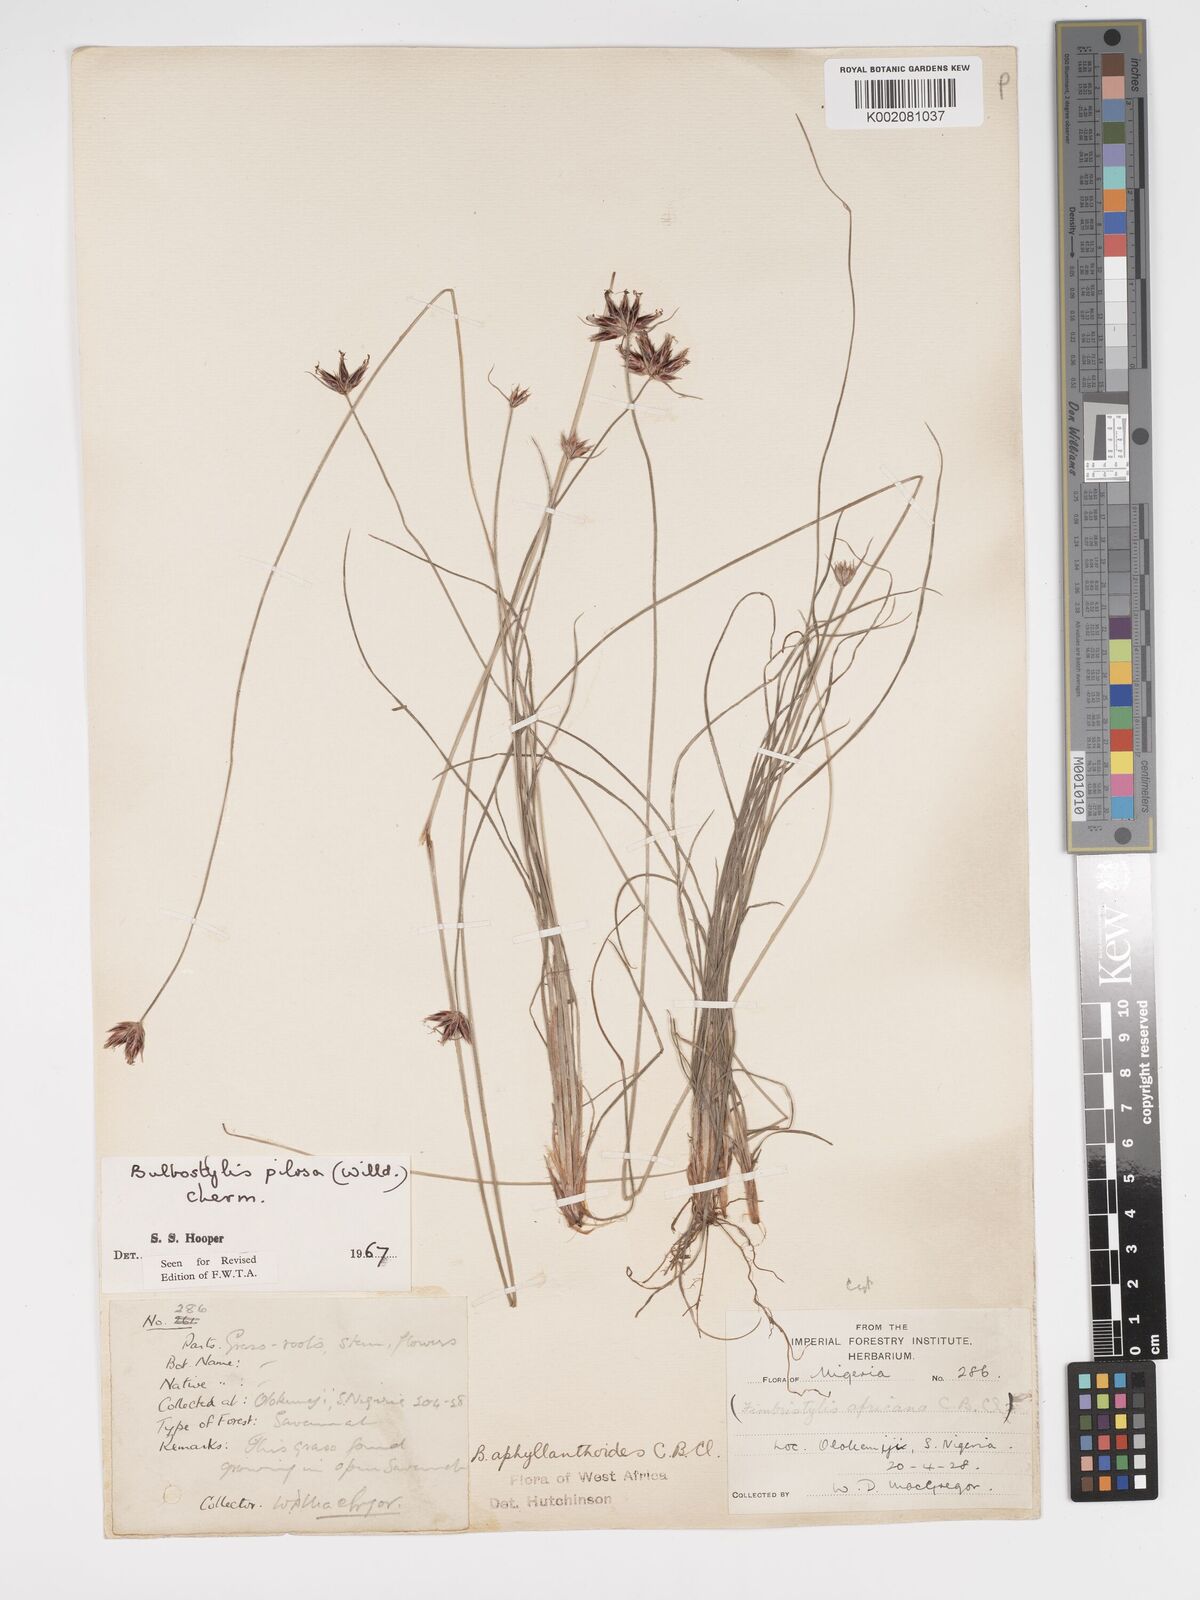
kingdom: Plantae
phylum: Tracheophyta
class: Liliopsida
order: Poales
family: Cyperaceae
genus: Bulbostylis
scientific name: Bulbostylis pilosa
